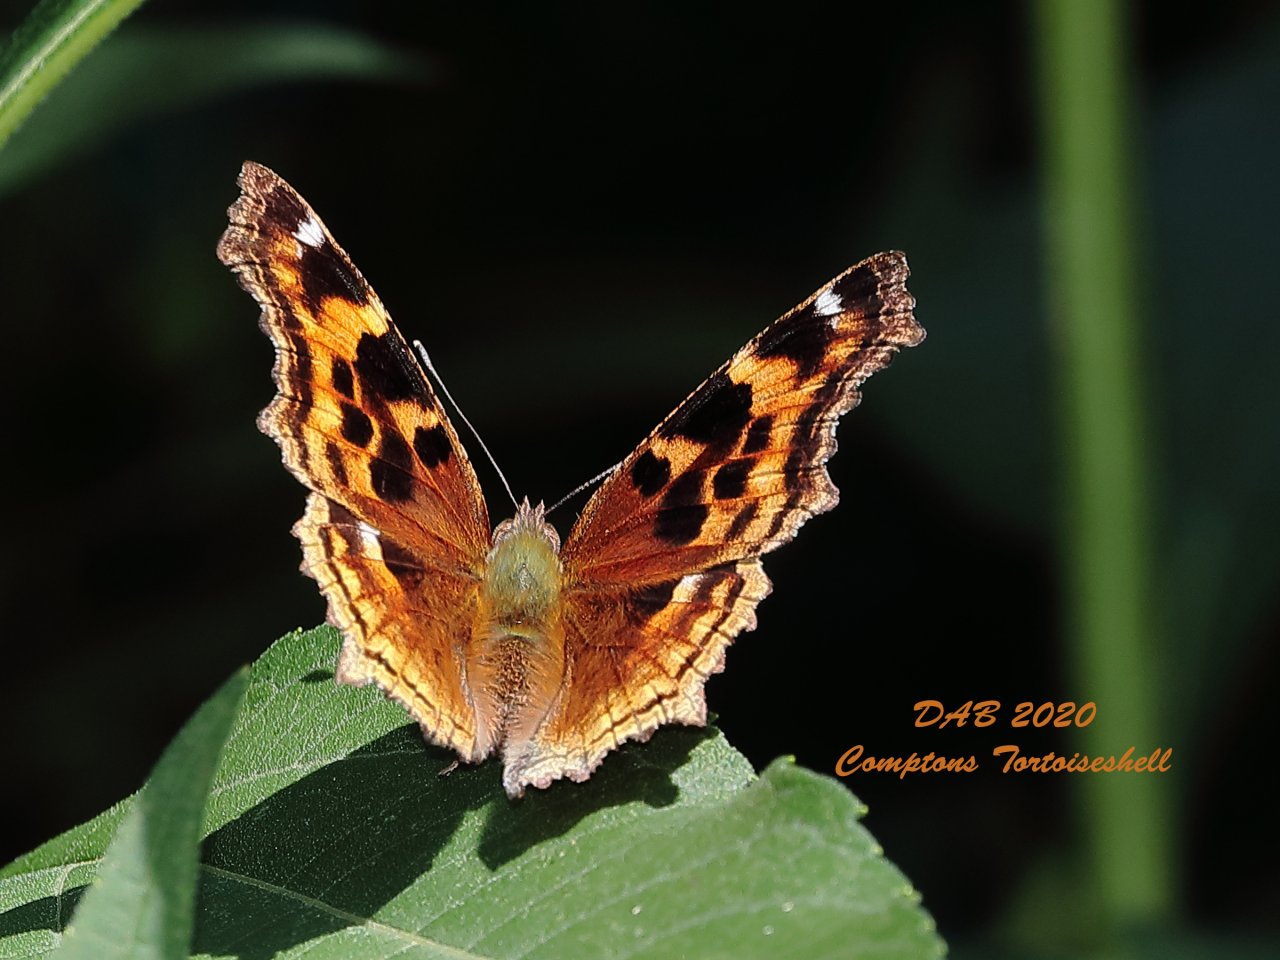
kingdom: Animalia
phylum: Arthropoda
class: Insecta
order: Lepidoptera
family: Nymphalidae
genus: Polygonia
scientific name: Polygonia vaualbum
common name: Compton Tortoiseshell
